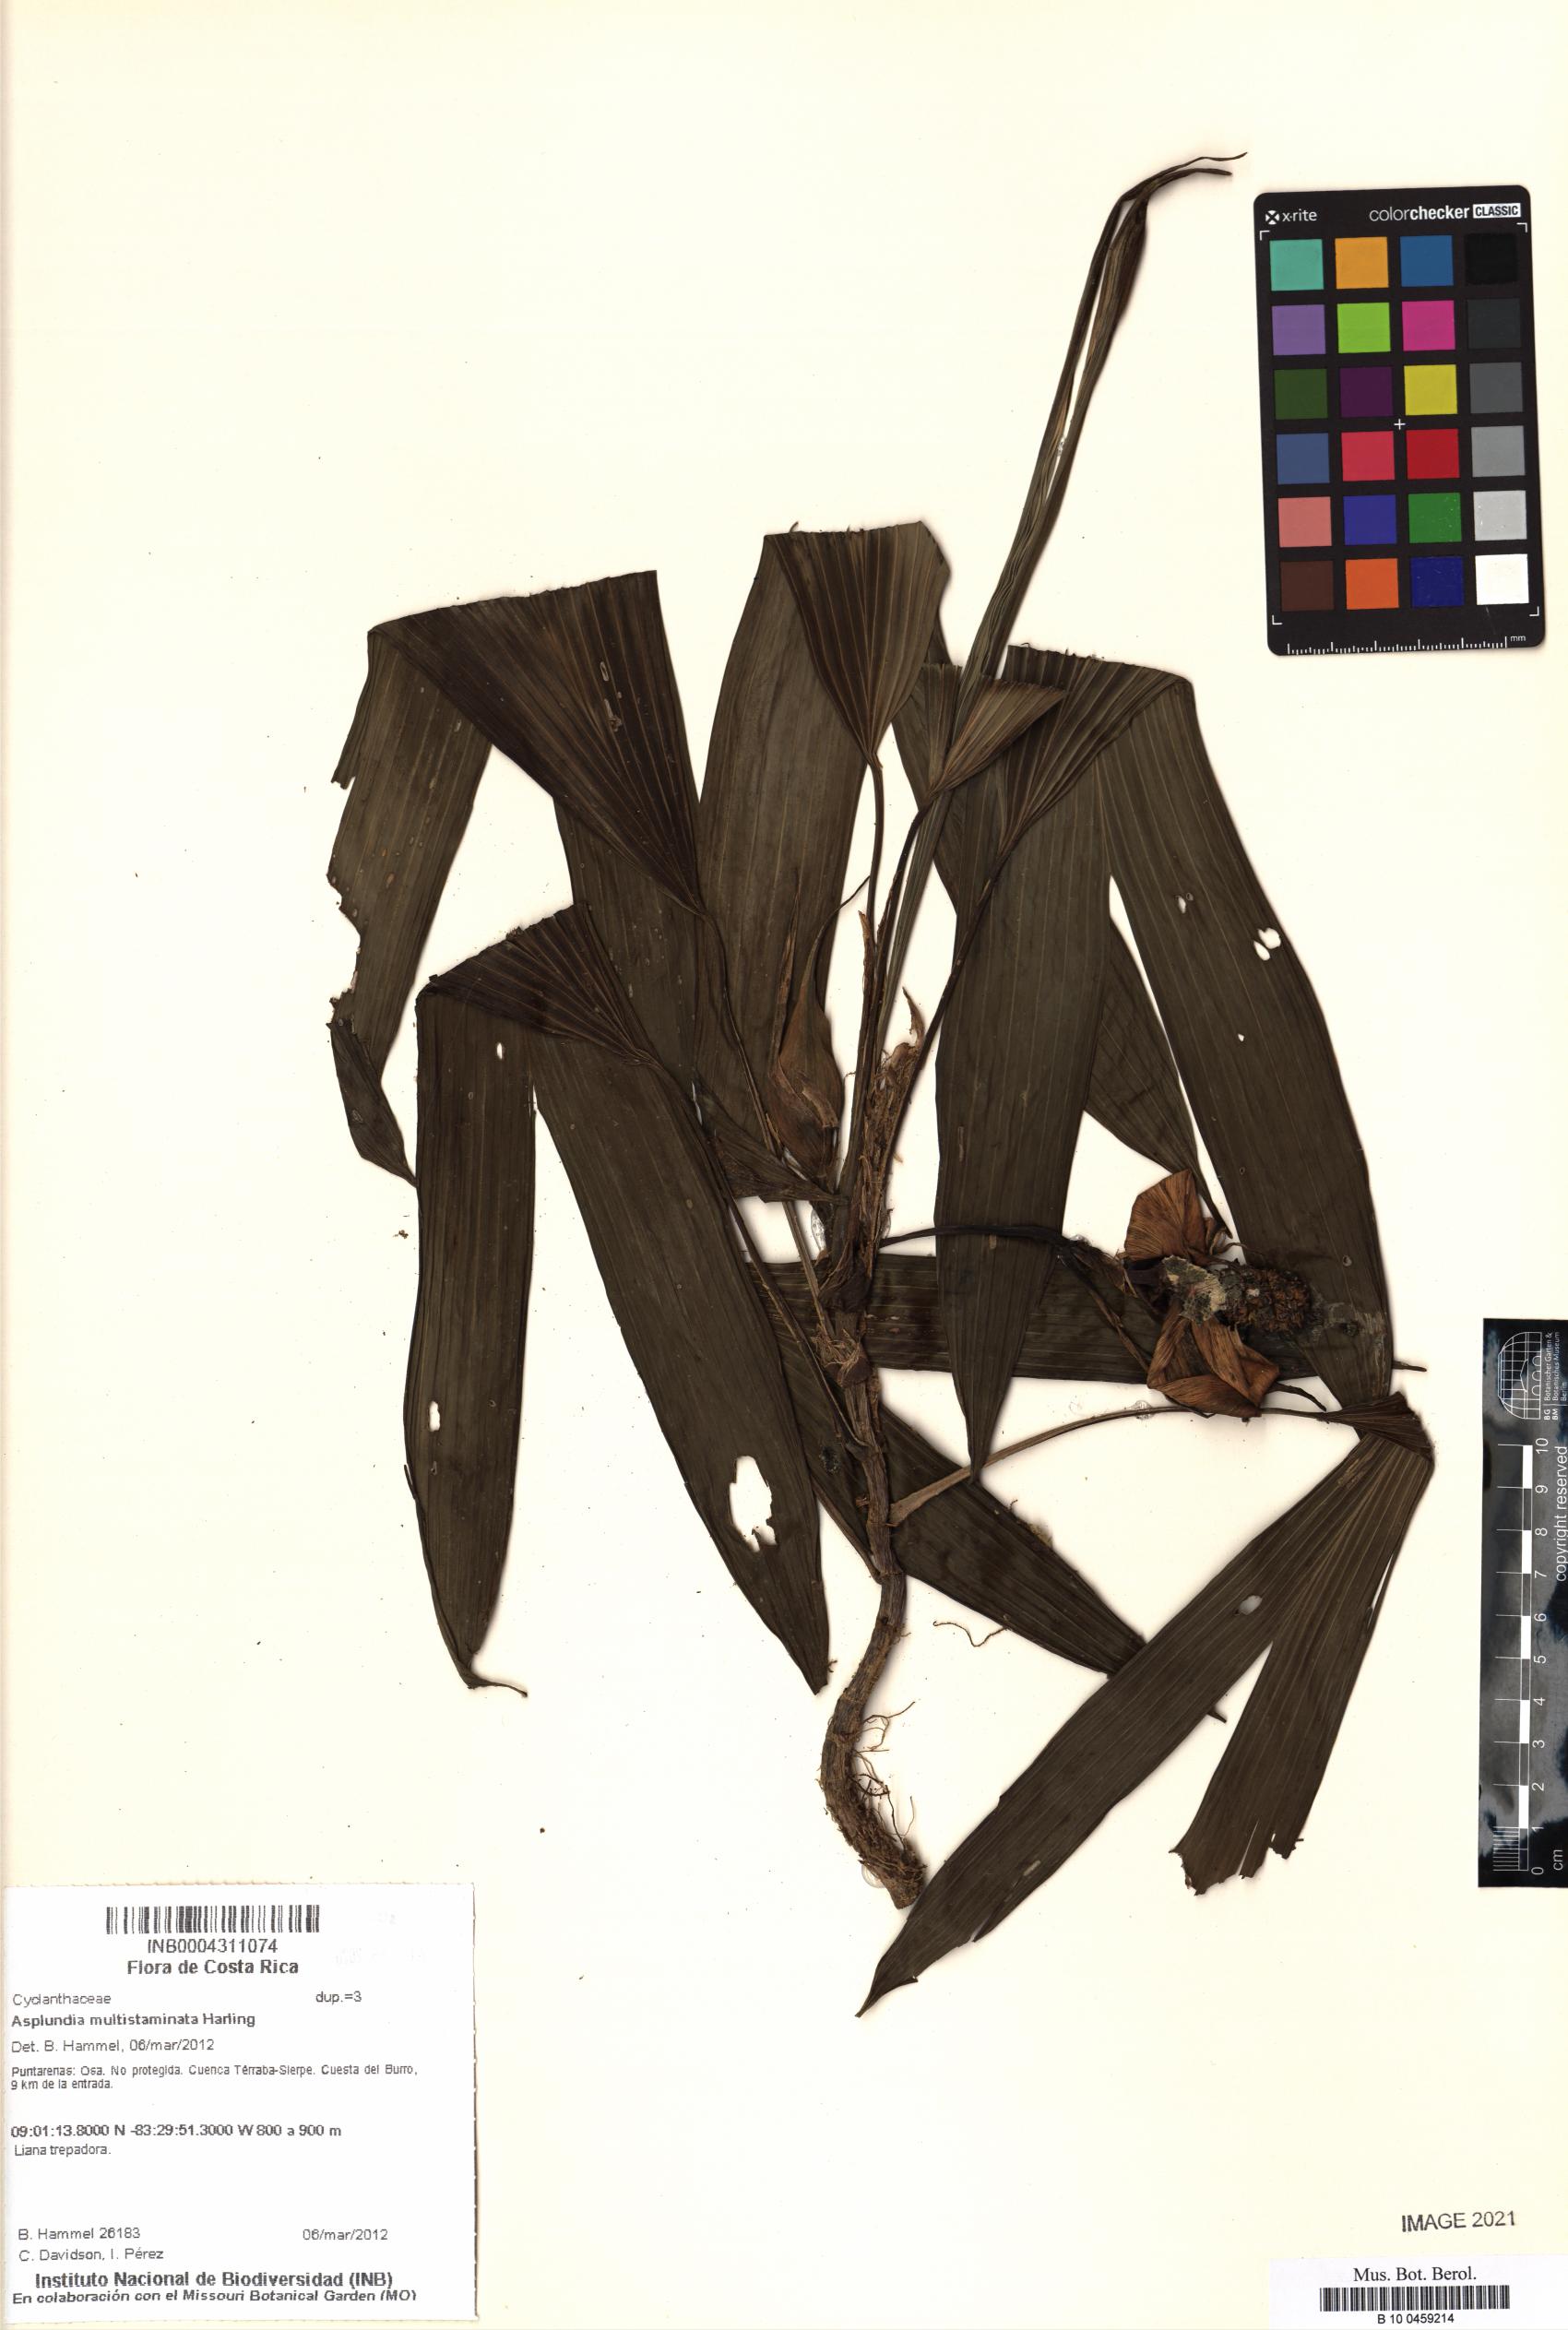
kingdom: Plantae
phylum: Tracheophyta
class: Liliopsida
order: Pandanales
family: Cyclanthaceae
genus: Asplundia
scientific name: Asplundia multistaminata
